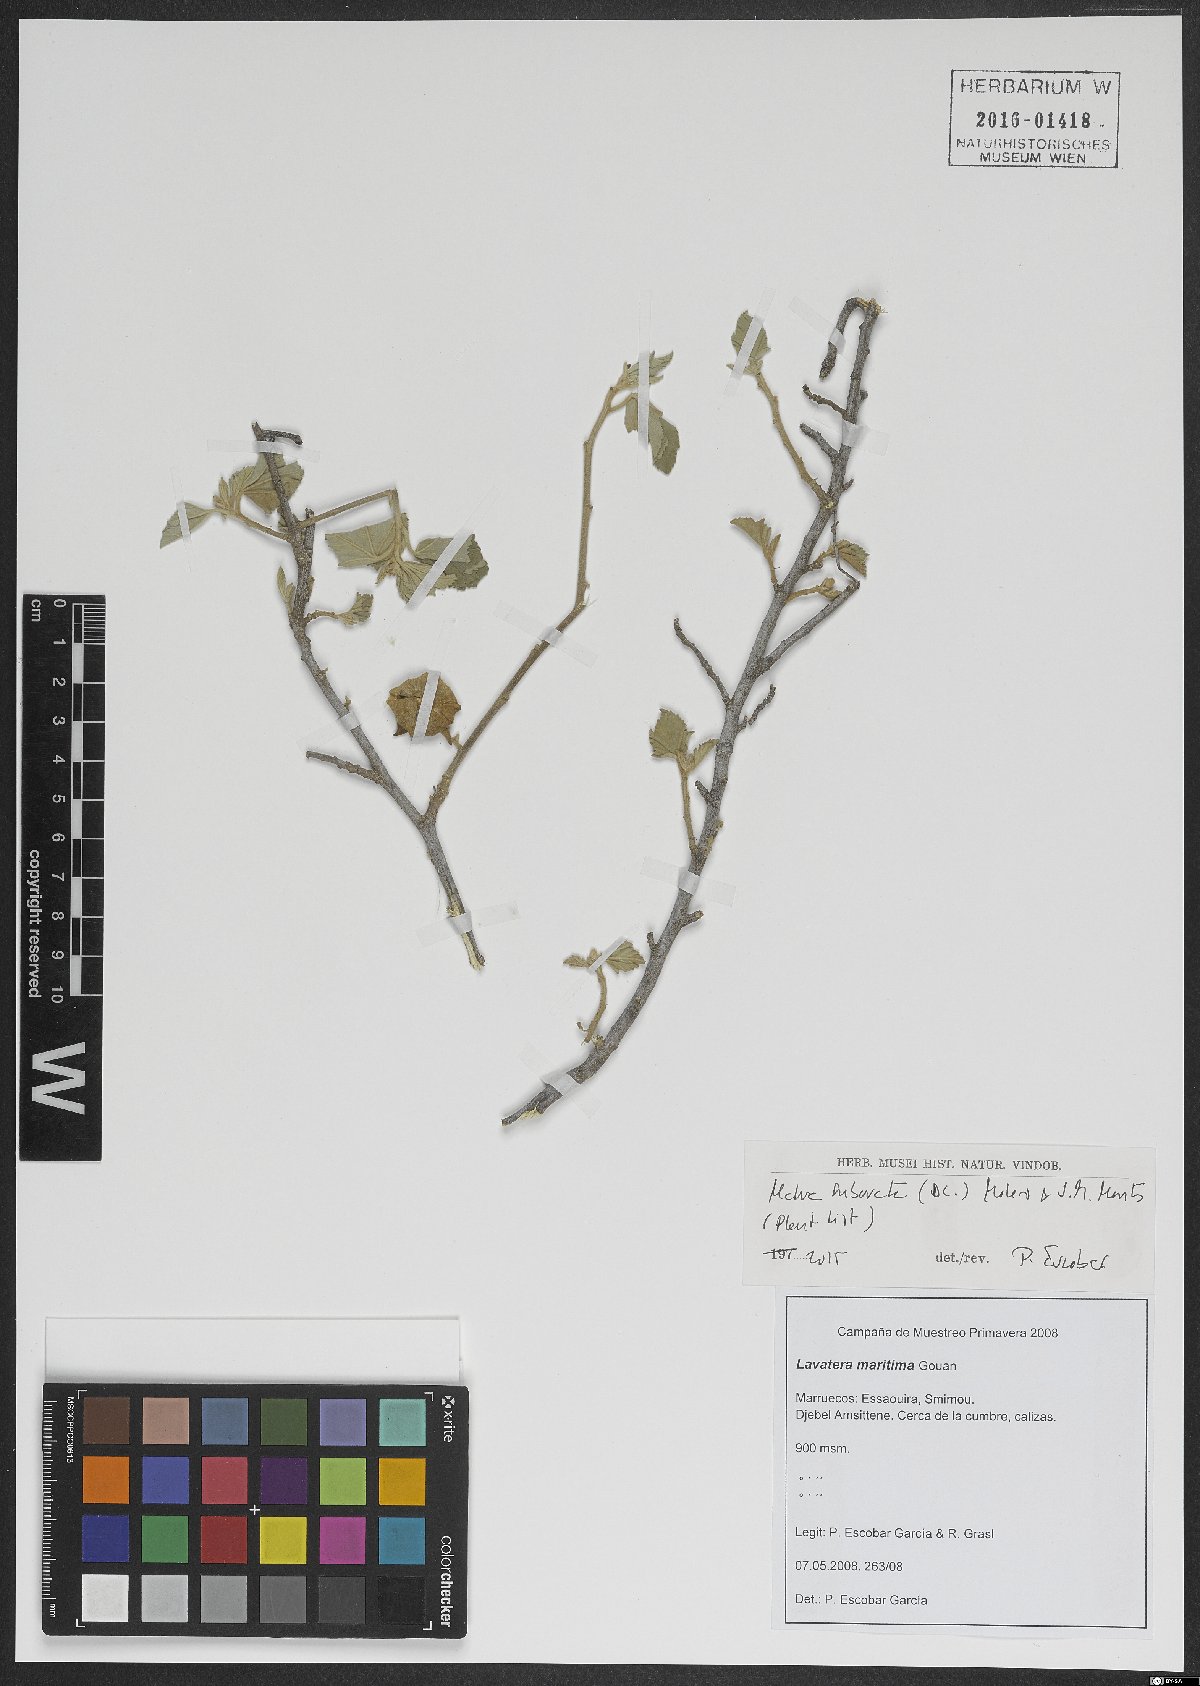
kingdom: Plantae
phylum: Tracheophyta
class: Magnoliopsida
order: Malvales
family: Malvaceae
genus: Malva
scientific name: Malva subovata
